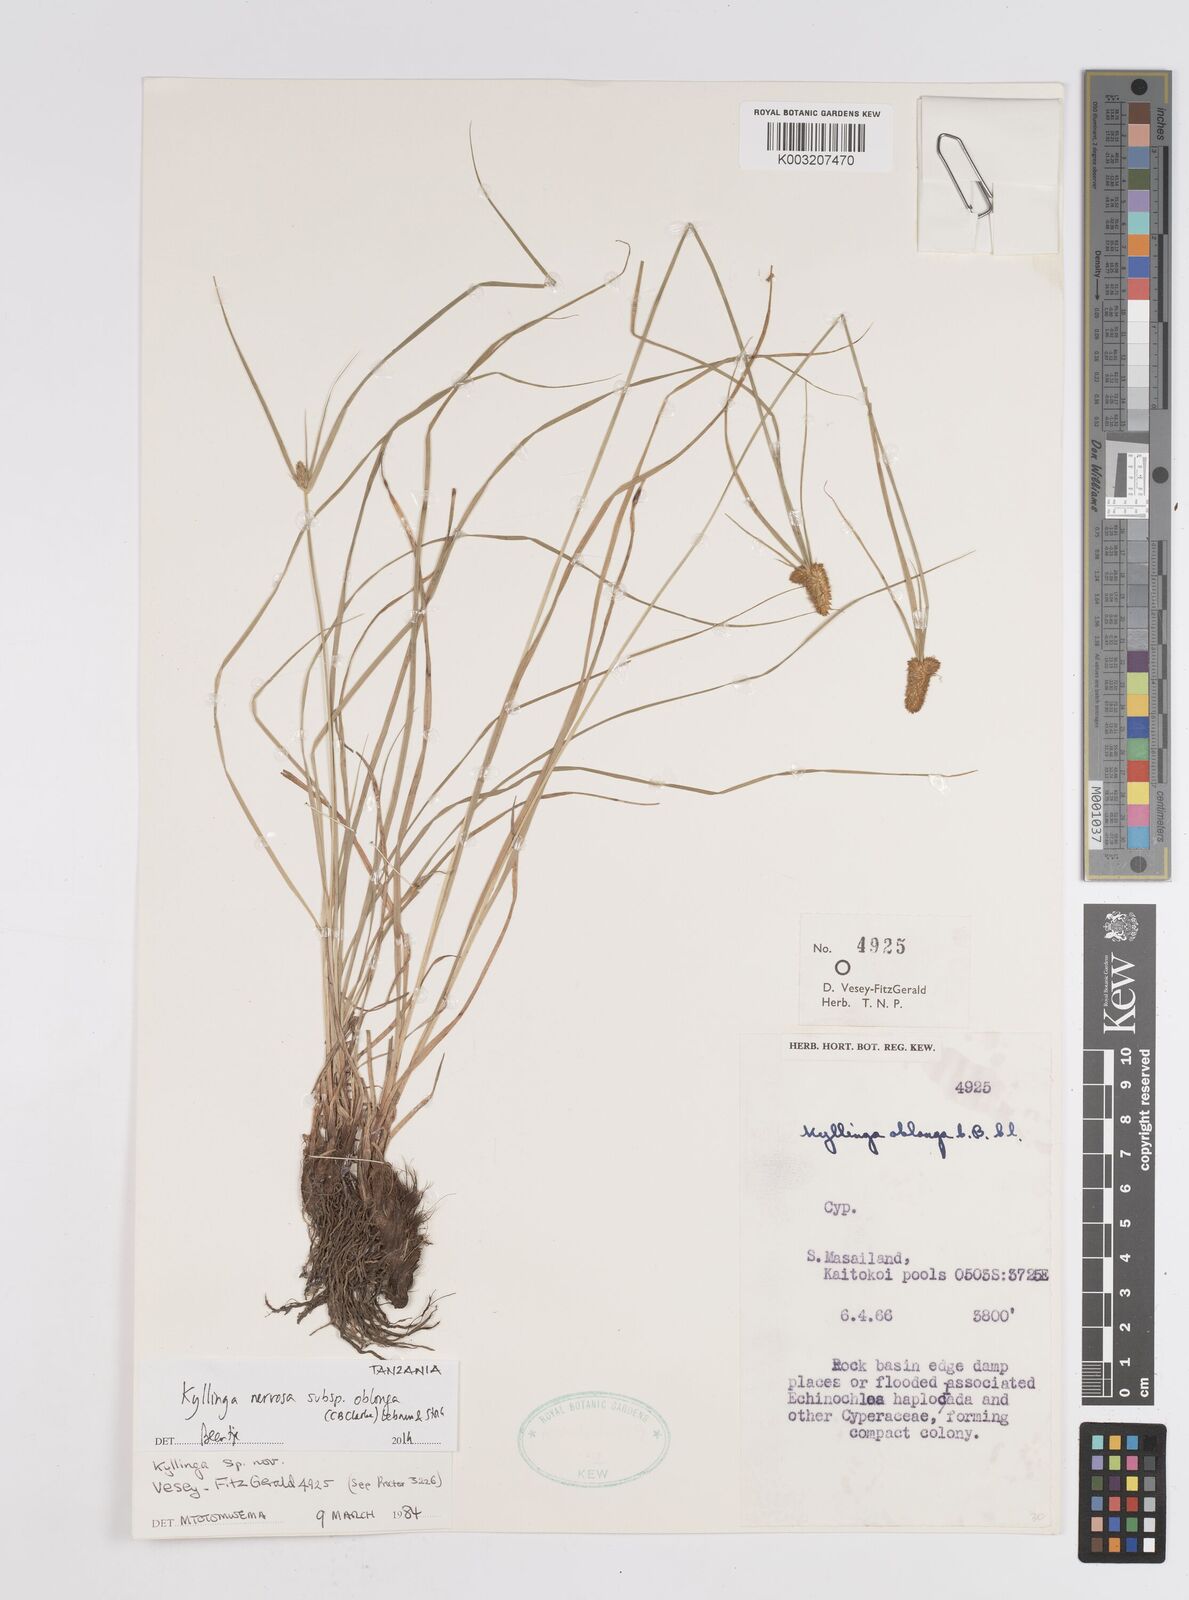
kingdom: Plantae
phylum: Tracheophyta
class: Liliopsida
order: Poales
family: Cyperaceae
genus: Cyperus
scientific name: Cyperus
